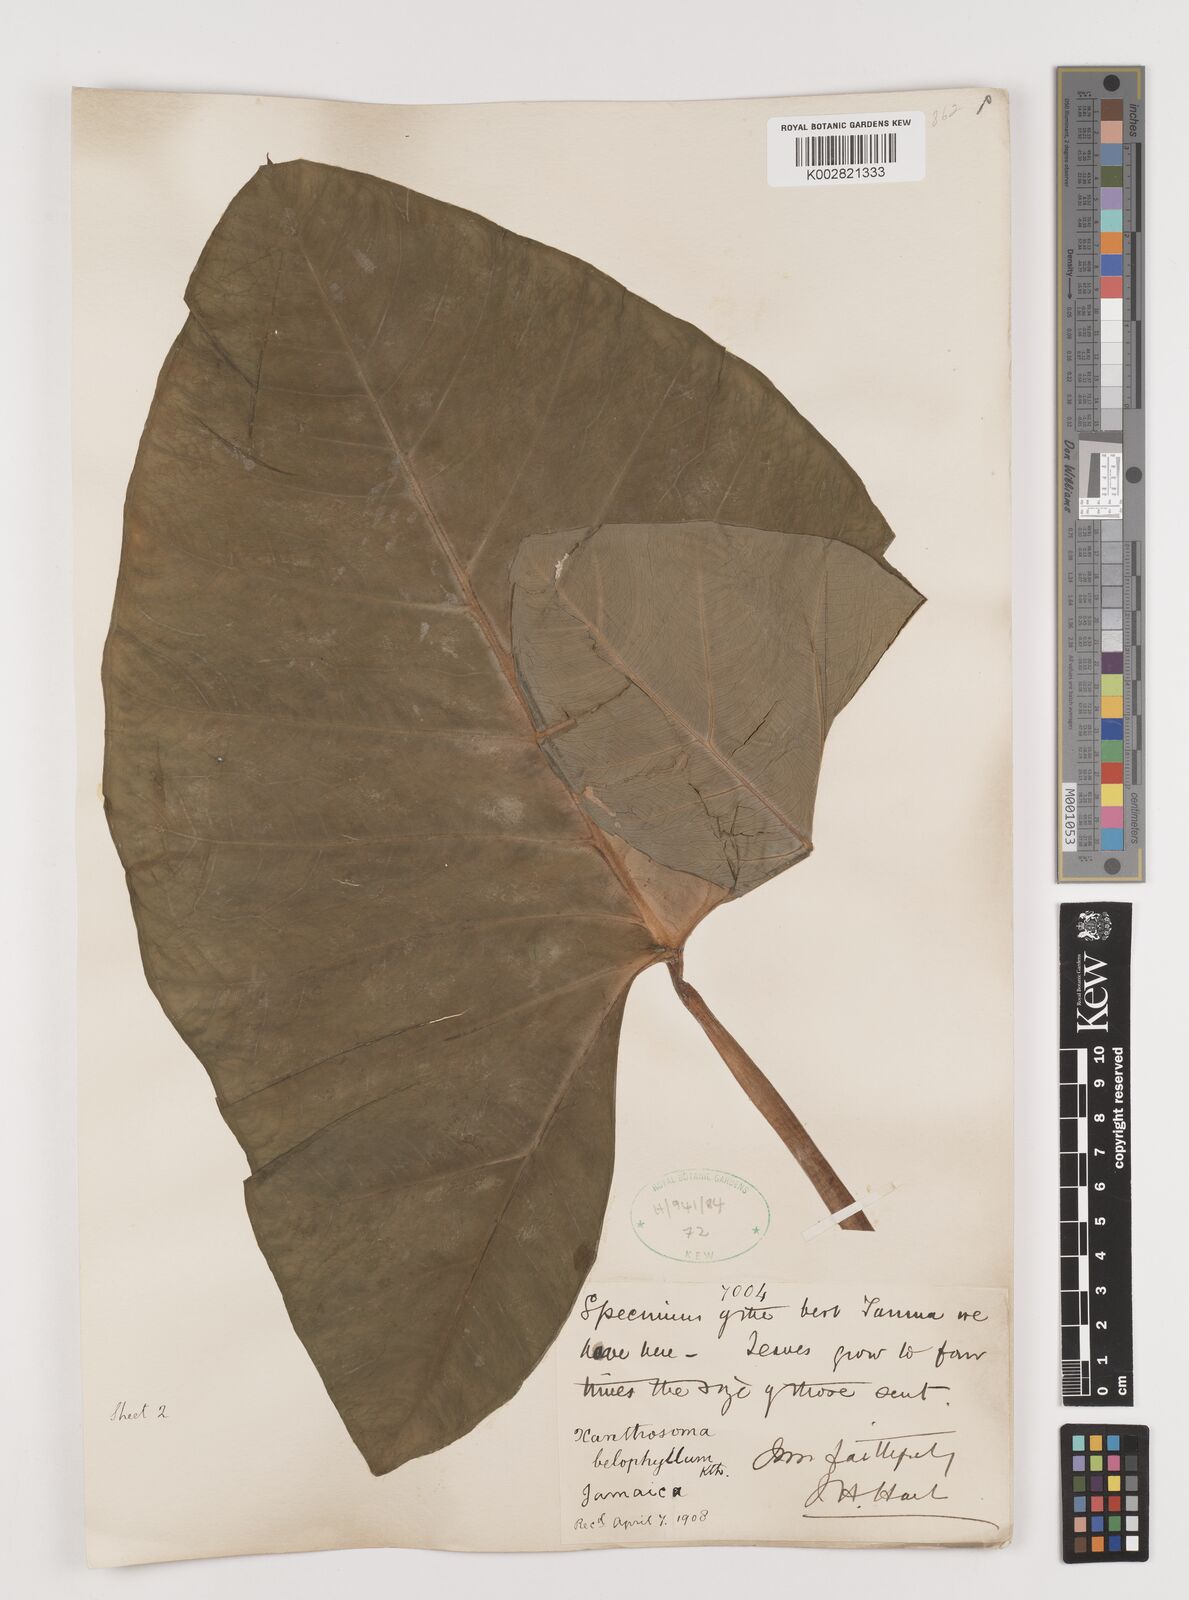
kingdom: Plantae
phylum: Tracheophyta
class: Liliopsida
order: Alismatales
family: Araceae
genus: Xanthosoma
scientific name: Xanthosoma belophyllum
